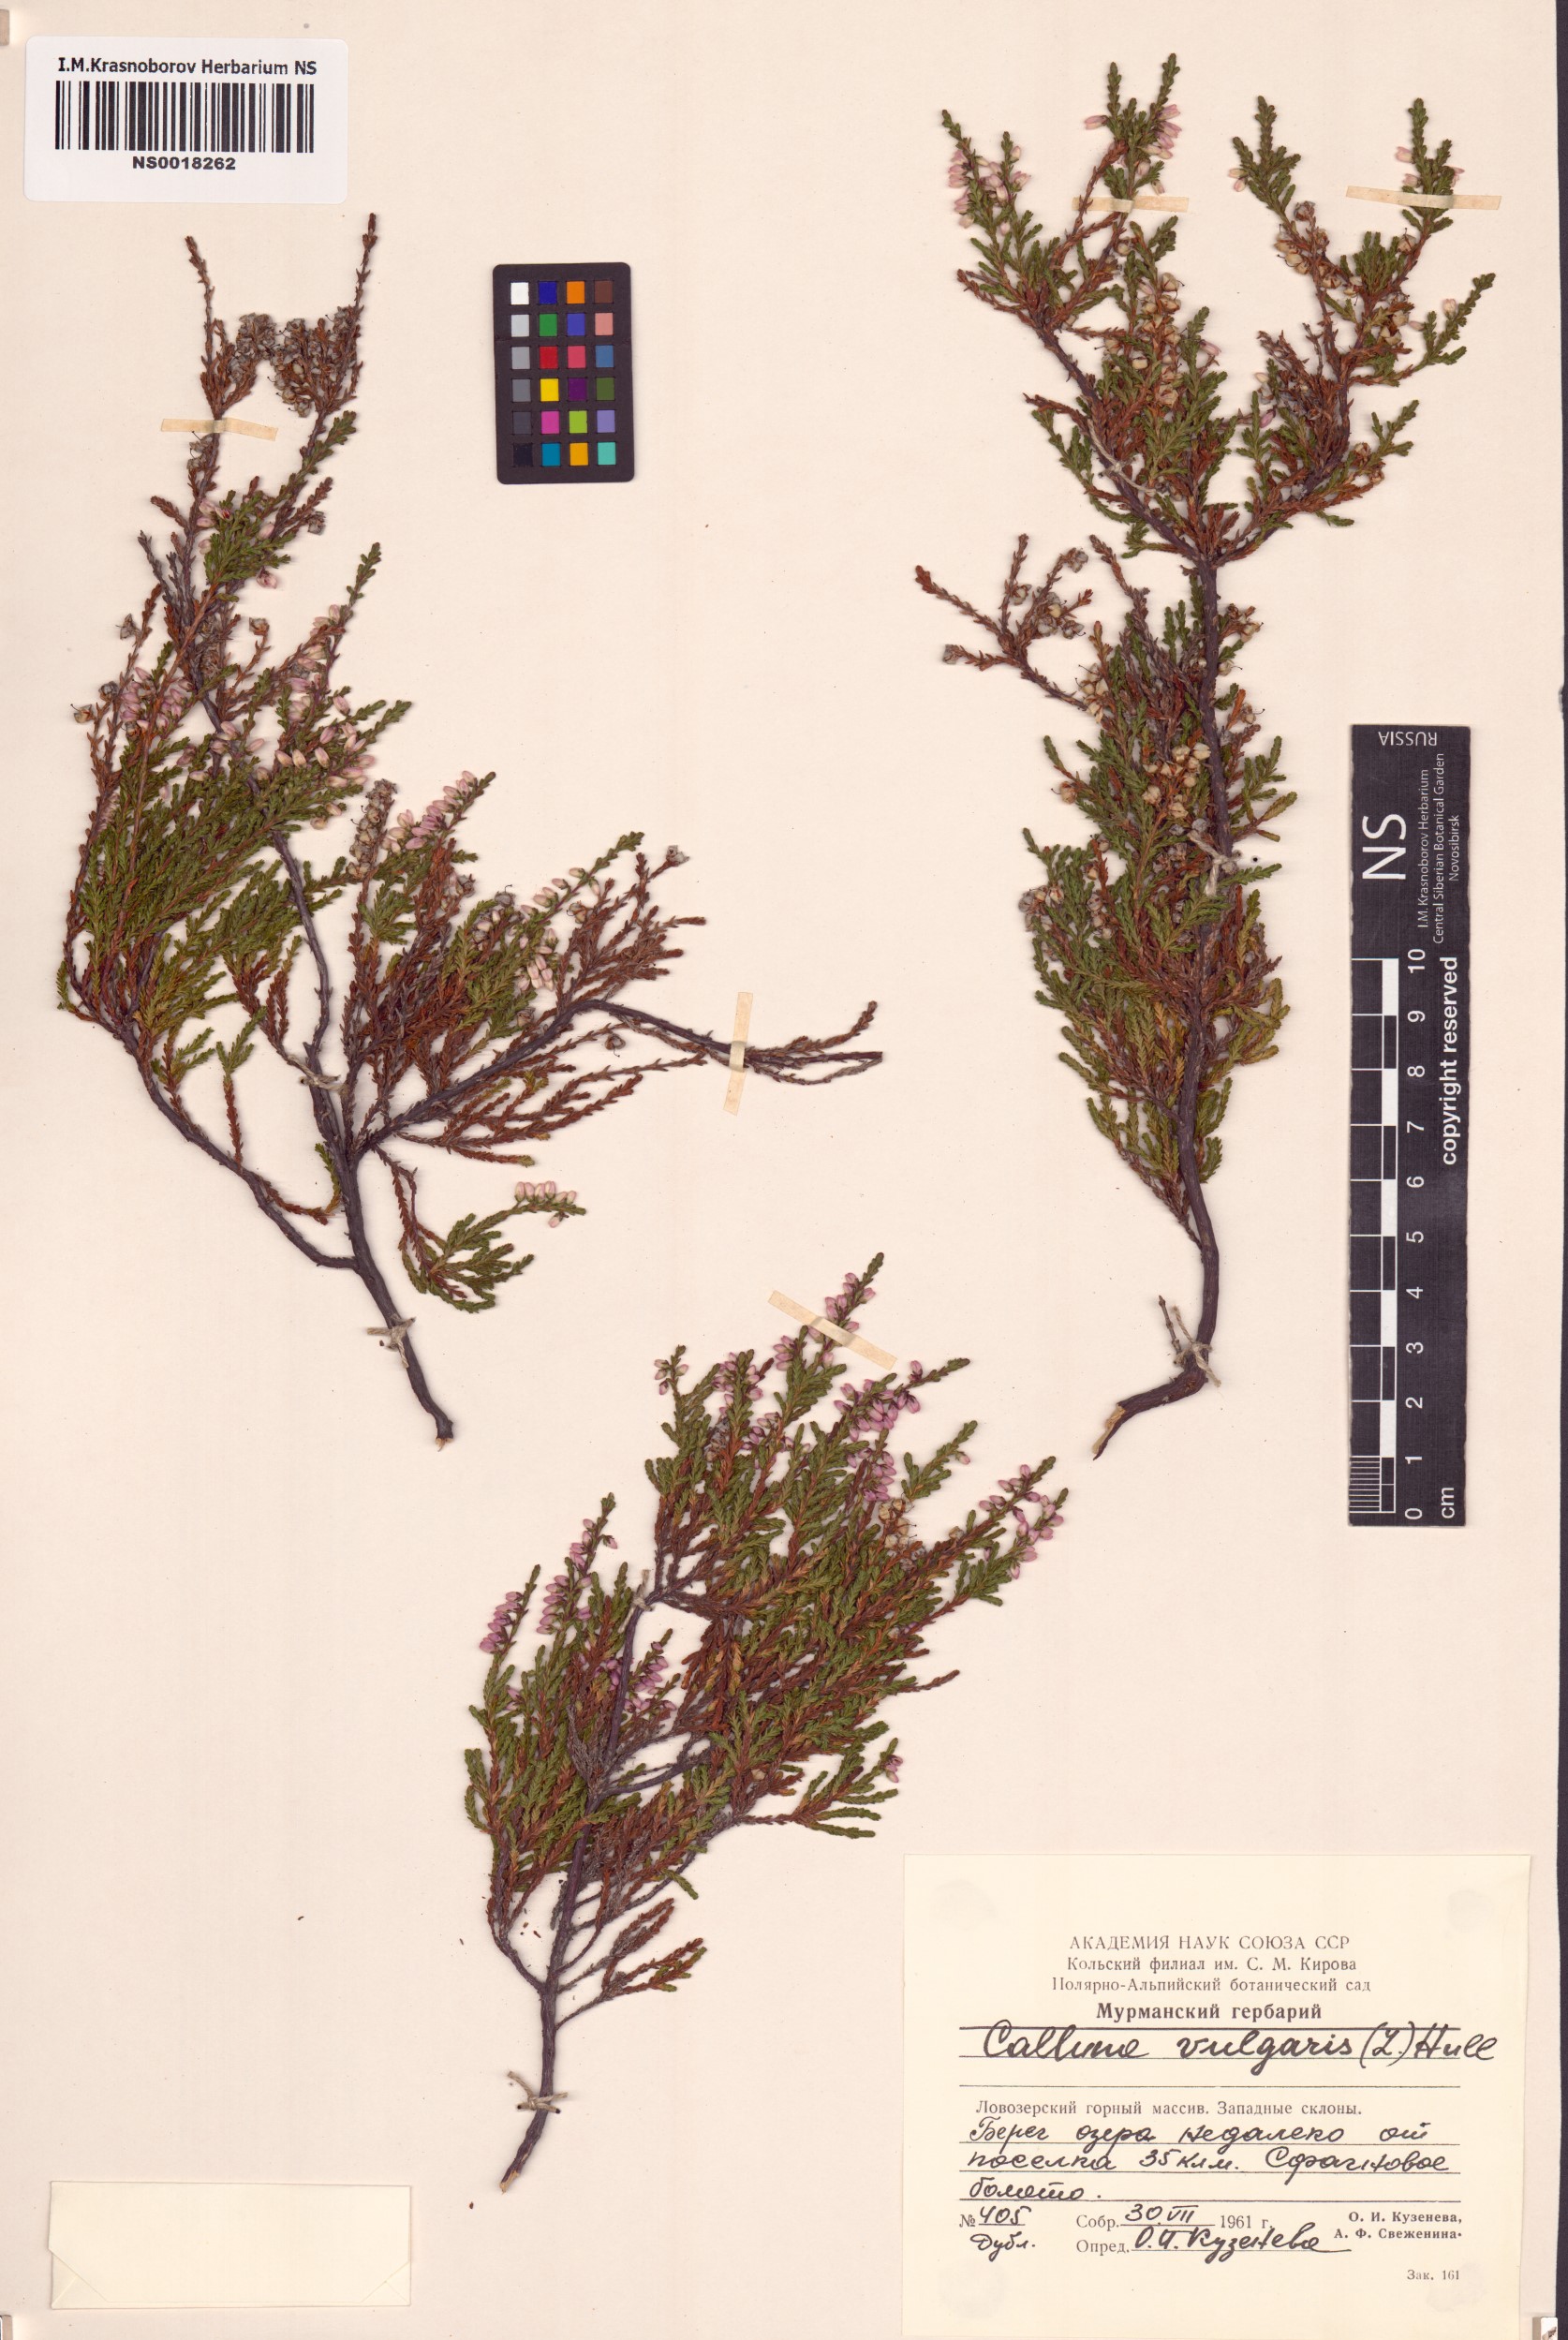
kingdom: Plantae
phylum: Tracheophyta
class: Magnoliopsida
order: Ericales
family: Ericaceae
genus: Calluna
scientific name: Calluna vulgaris
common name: Heather
